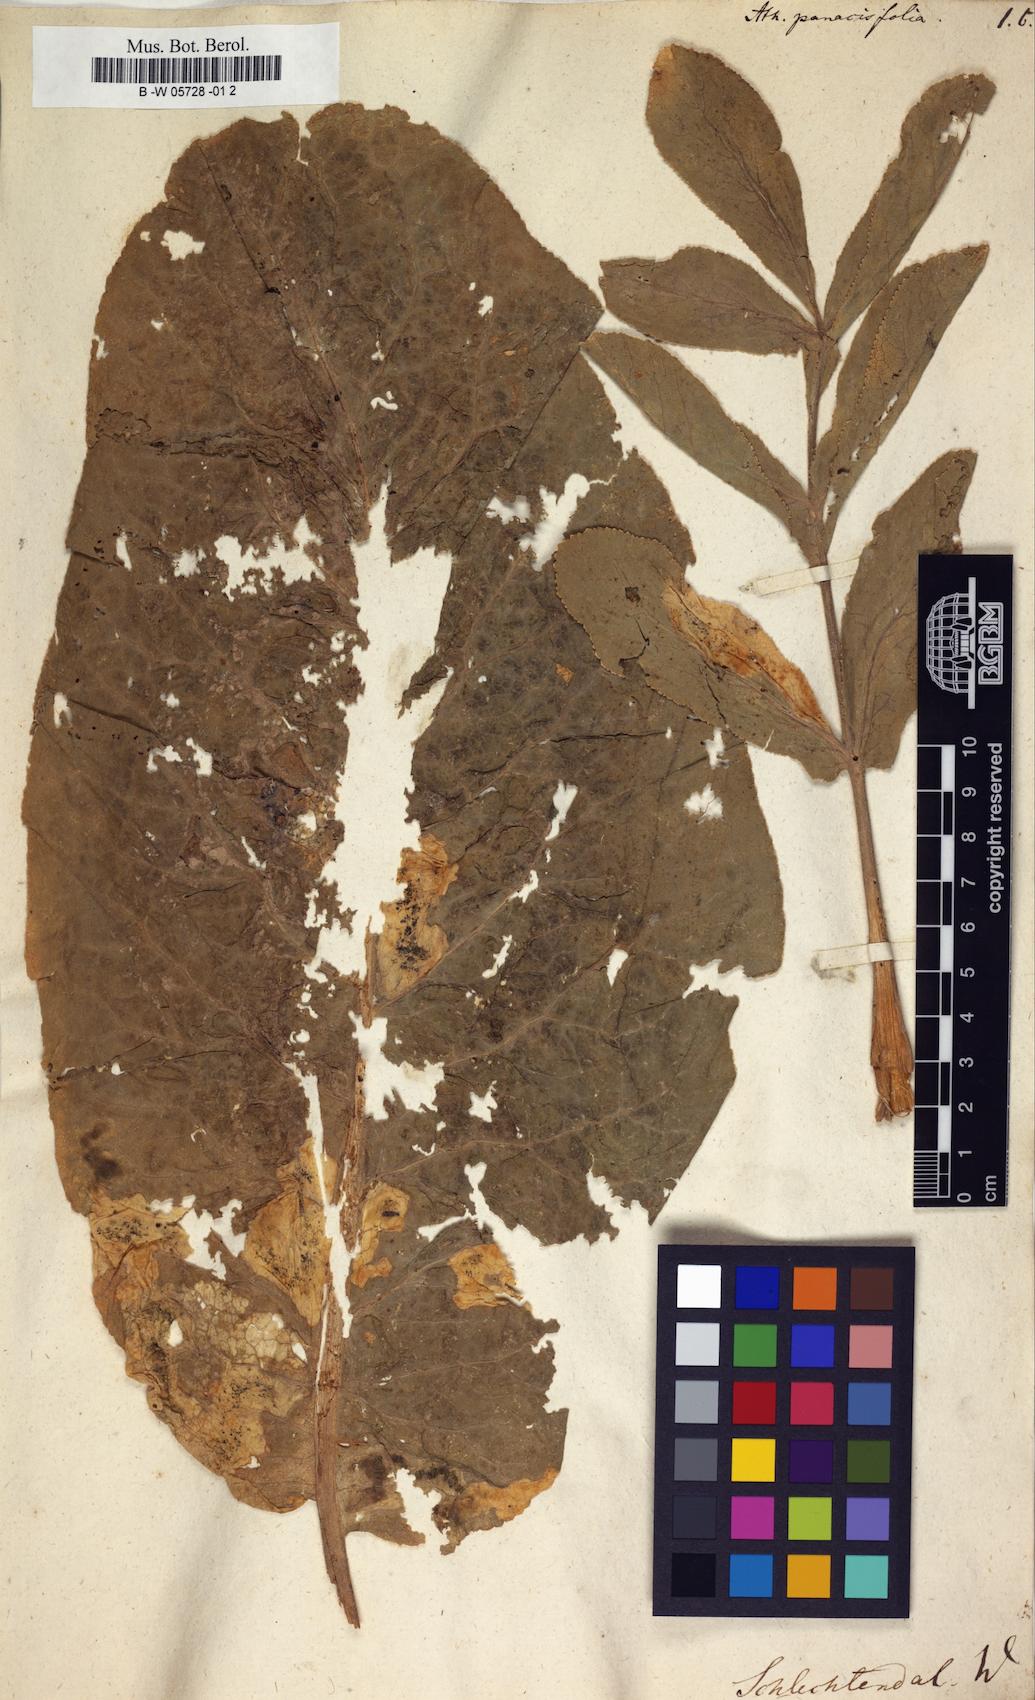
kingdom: Plantae
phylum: Tracheophyta
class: Magnoliopsida
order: Apiales
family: Apiaceae
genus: Magydaris
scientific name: Magydaris
